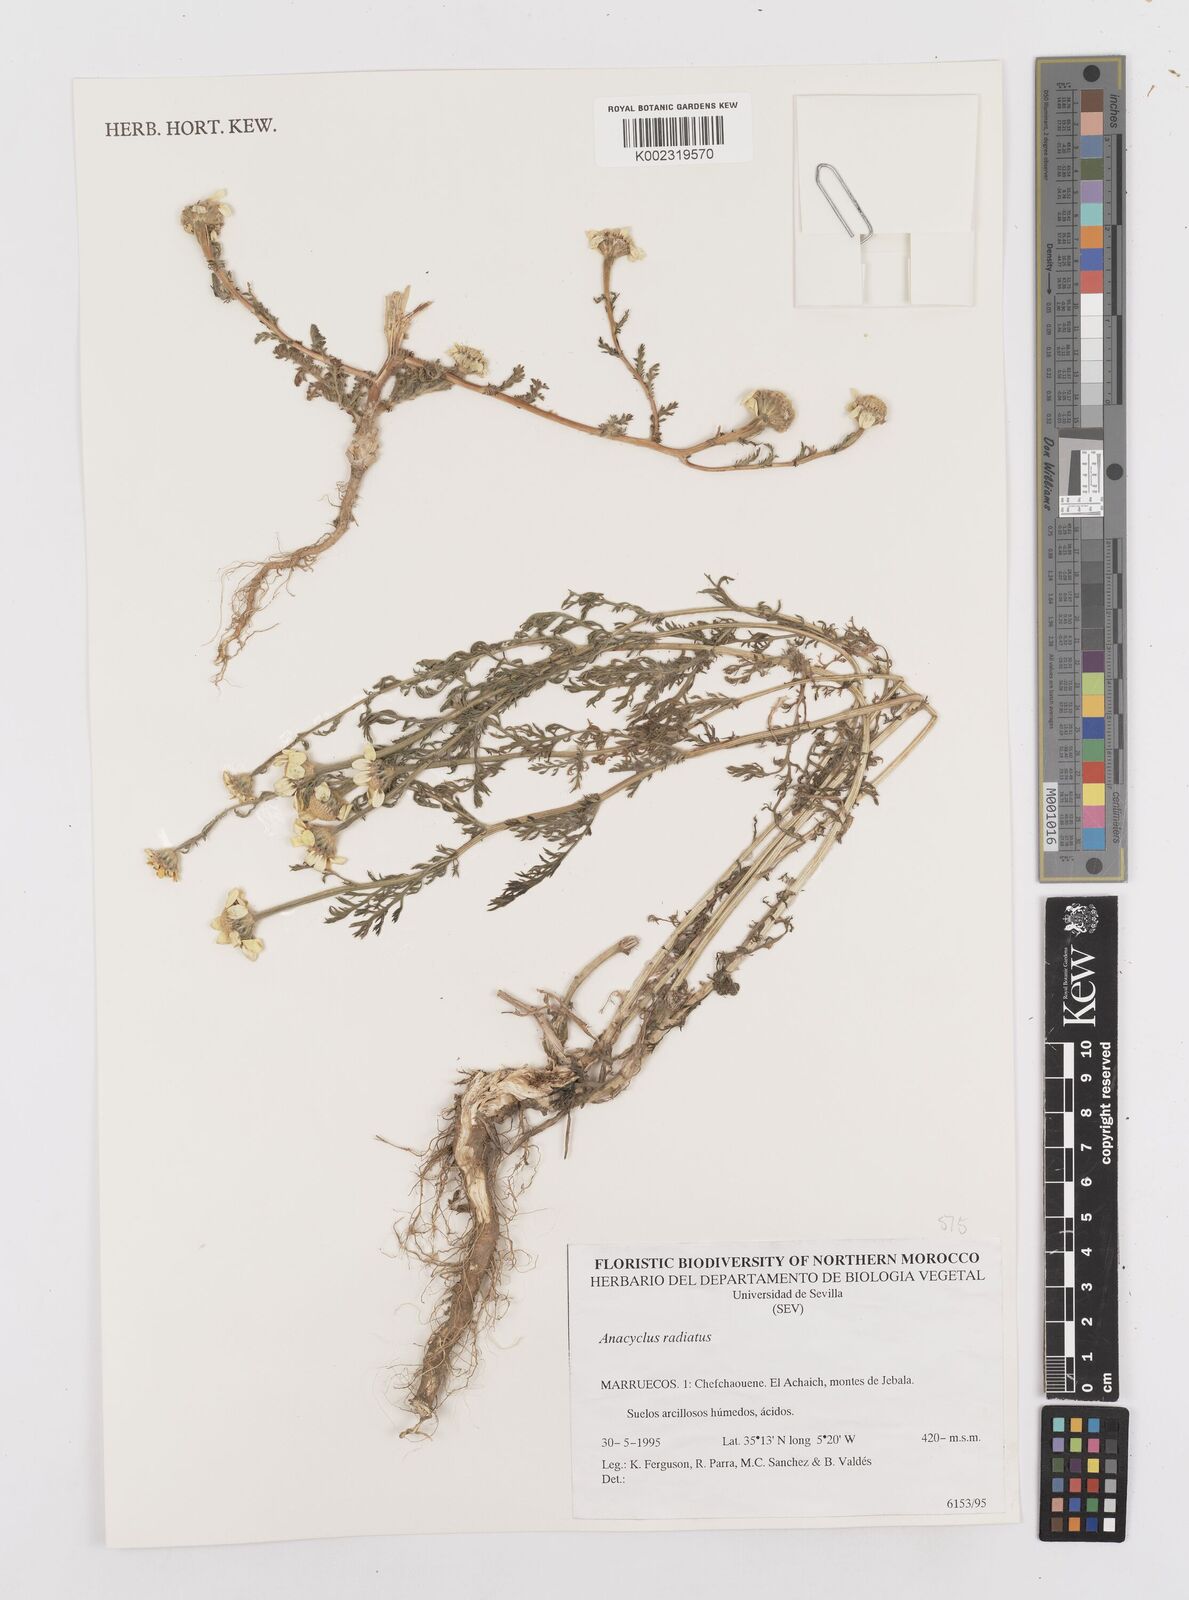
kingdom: Plantae
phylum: Tracheophyta
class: Magnoliopsida
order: Asterales
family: Asteraceae
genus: Anacyclus
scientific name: Anacyclus radiatus
